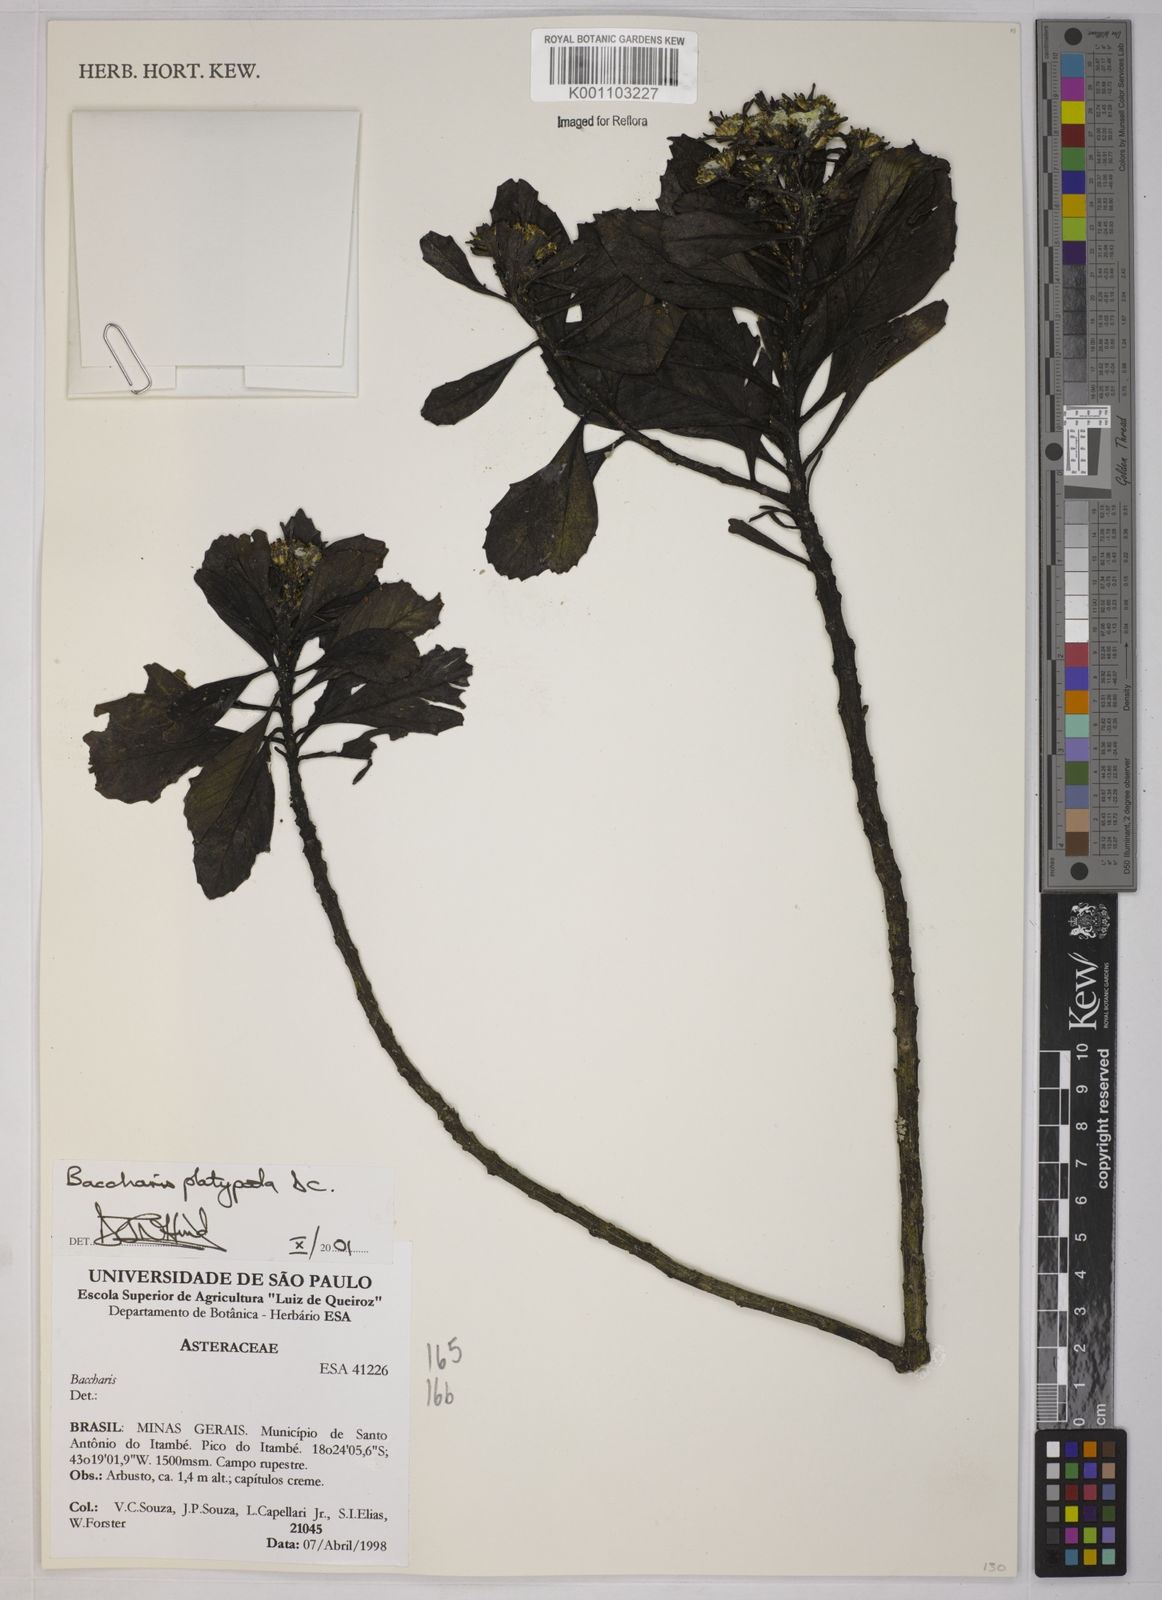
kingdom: Plantae
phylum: Tracheophyta
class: Magnoliopsida
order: Asterales
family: Asteraceae
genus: Baccharis
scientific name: Baccharis platypoda
